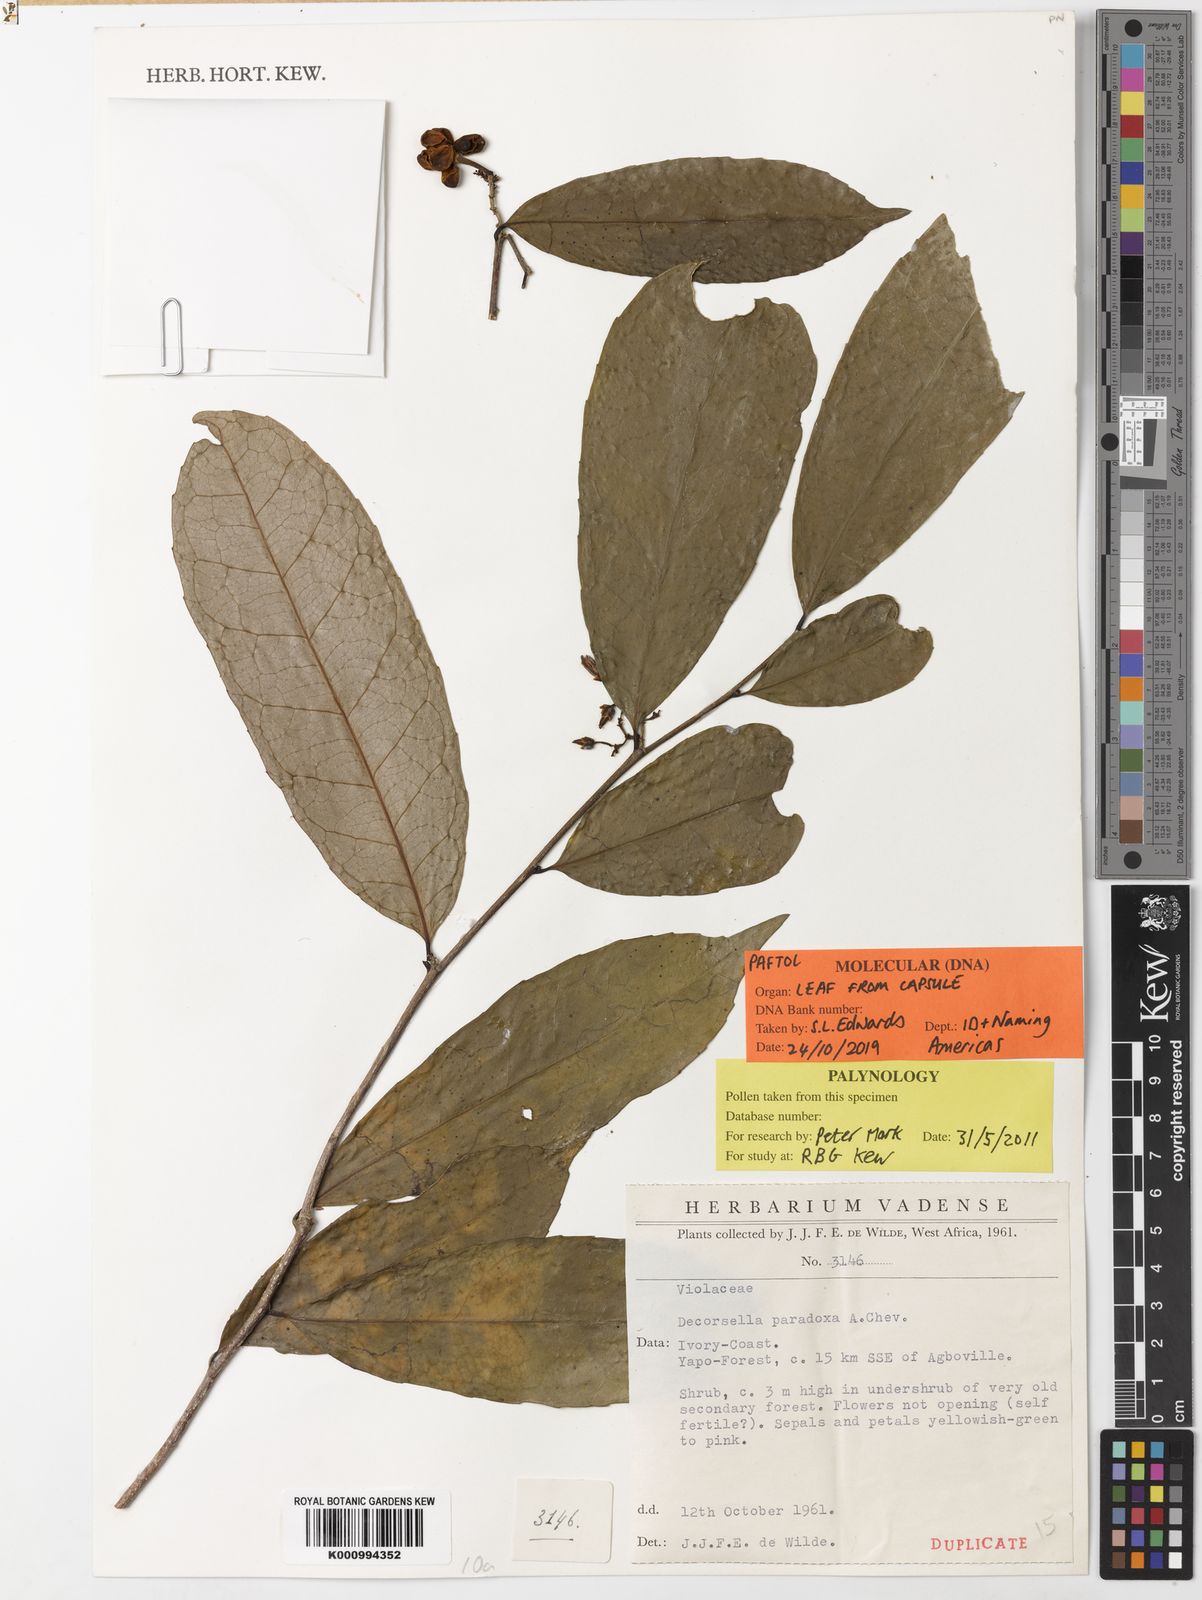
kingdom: Plantae
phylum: Tracheophyta
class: Magnoliopsida
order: Malpighiales
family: Violaceae
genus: Decorsella
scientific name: Decorsella paradoxa
